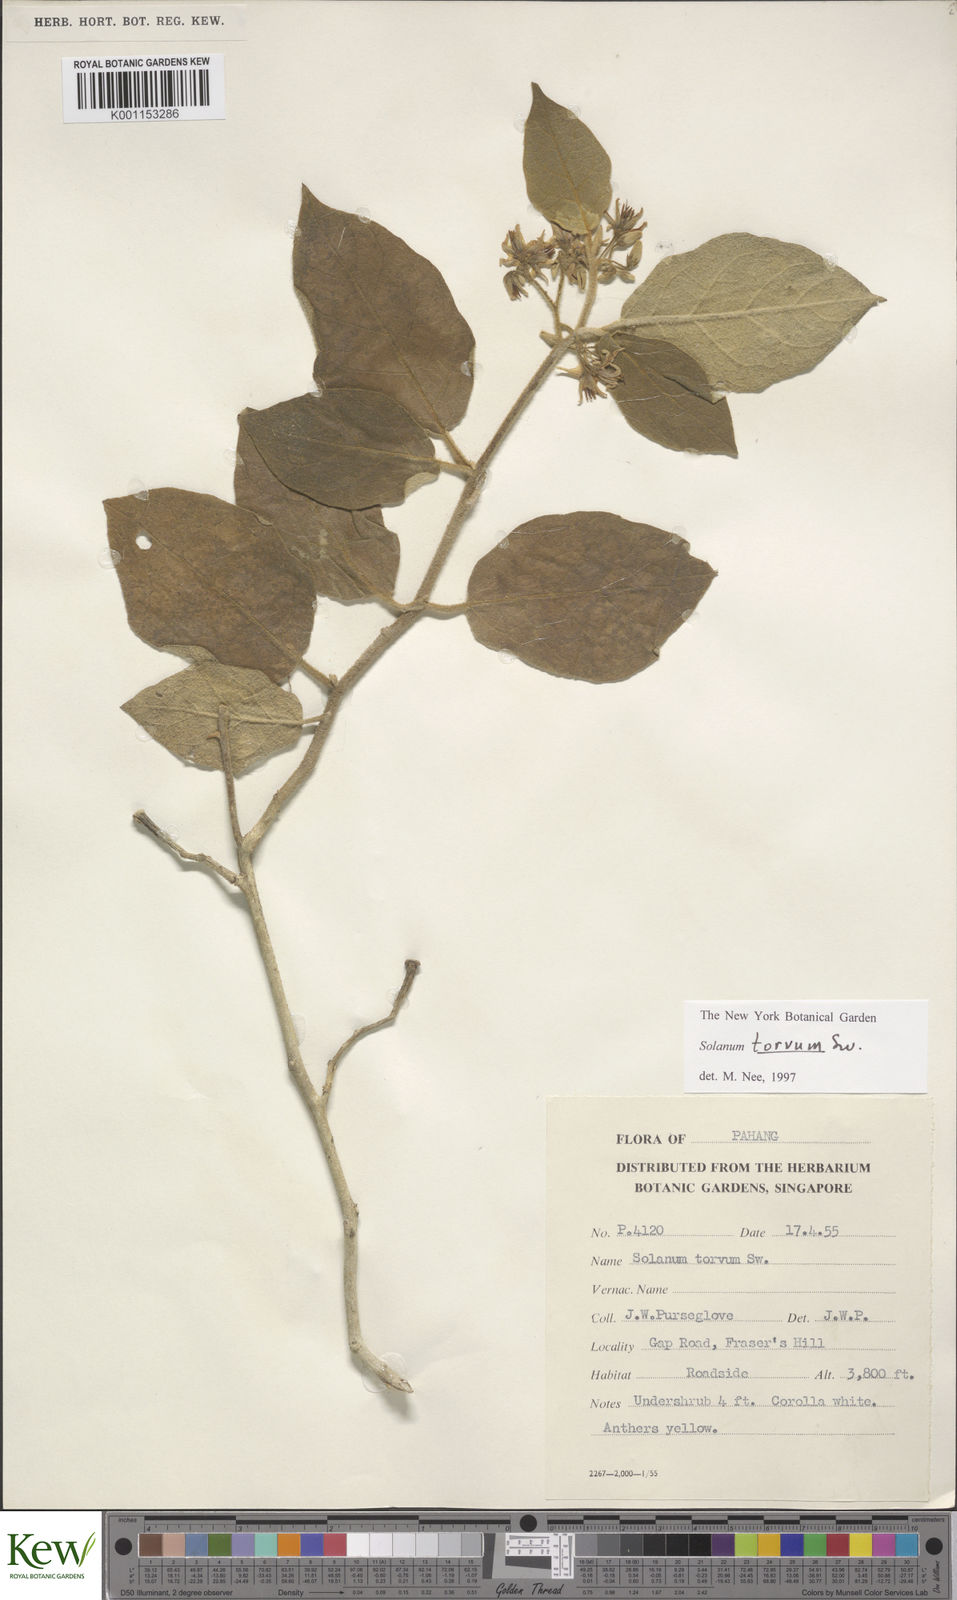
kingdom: Plantae
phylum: Tracheophyta
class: Magnoliopsida
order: Solanales
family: Solanaceae
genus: Solanum
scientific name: Solanum torvum
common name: Turkey berry
